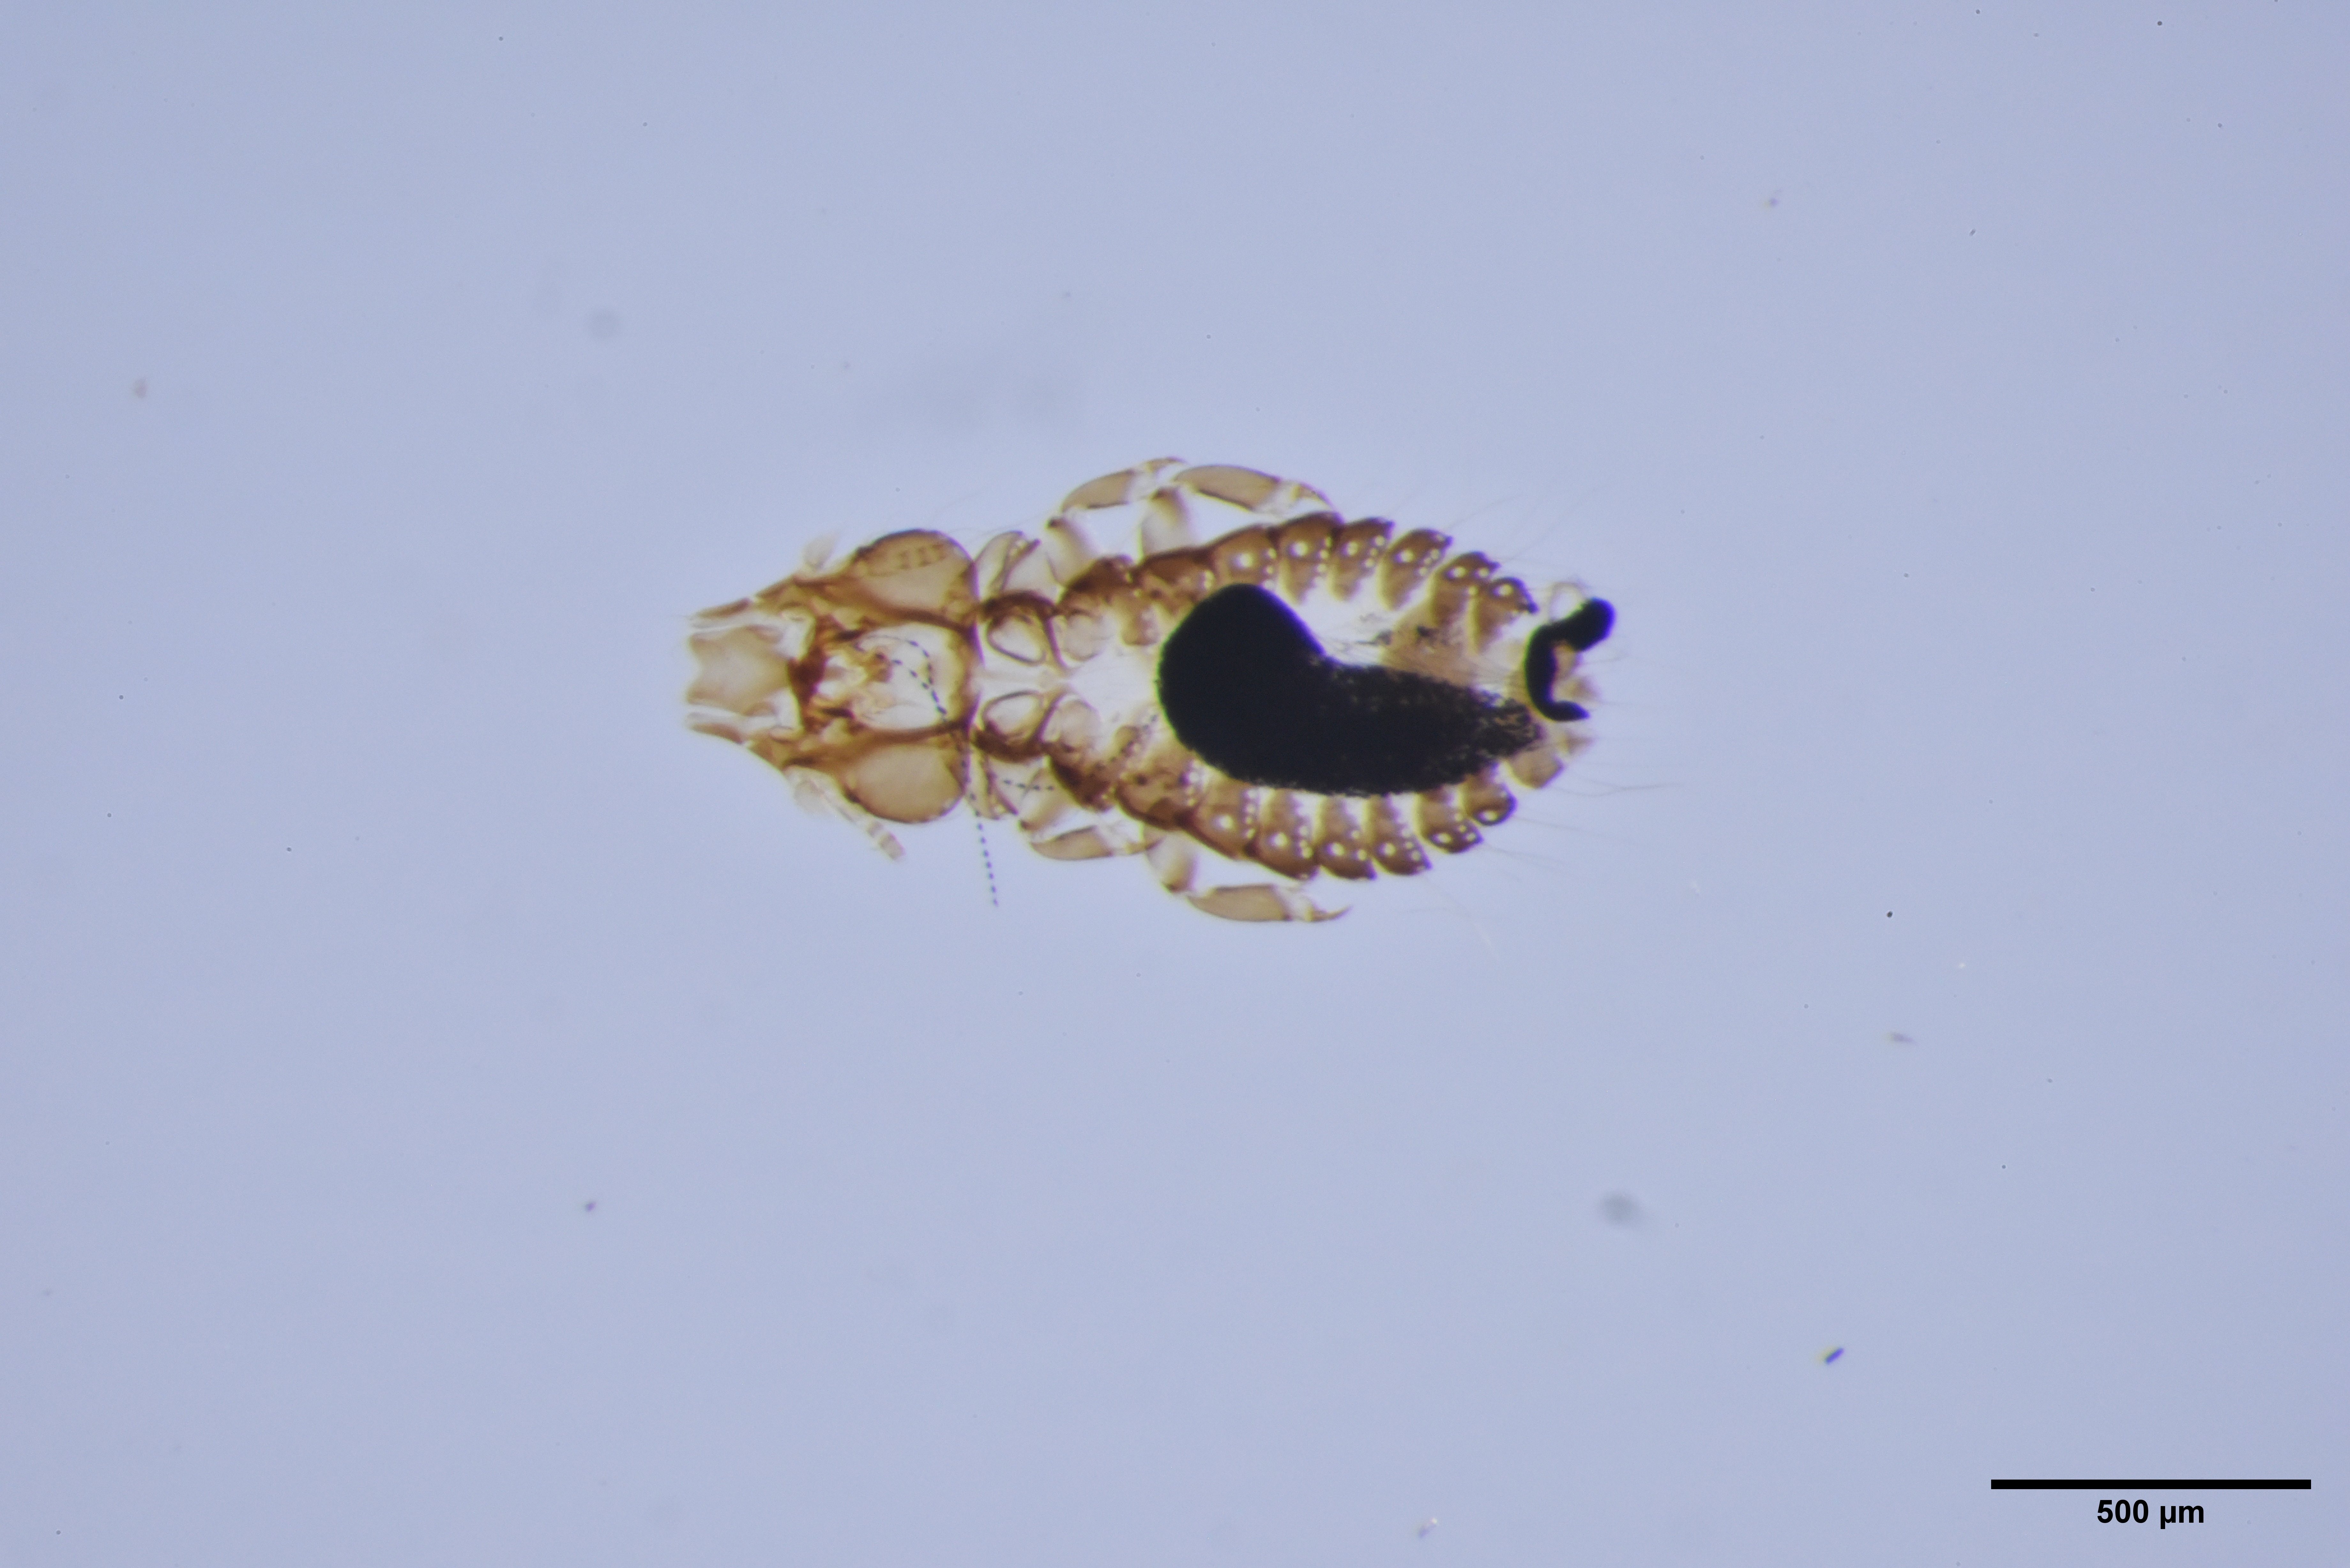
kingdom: Animalia
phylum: Arthropoda
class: Insecta
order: Psocodea
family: Philopteridae
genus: Philopterus
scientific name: Philopterus rapax
